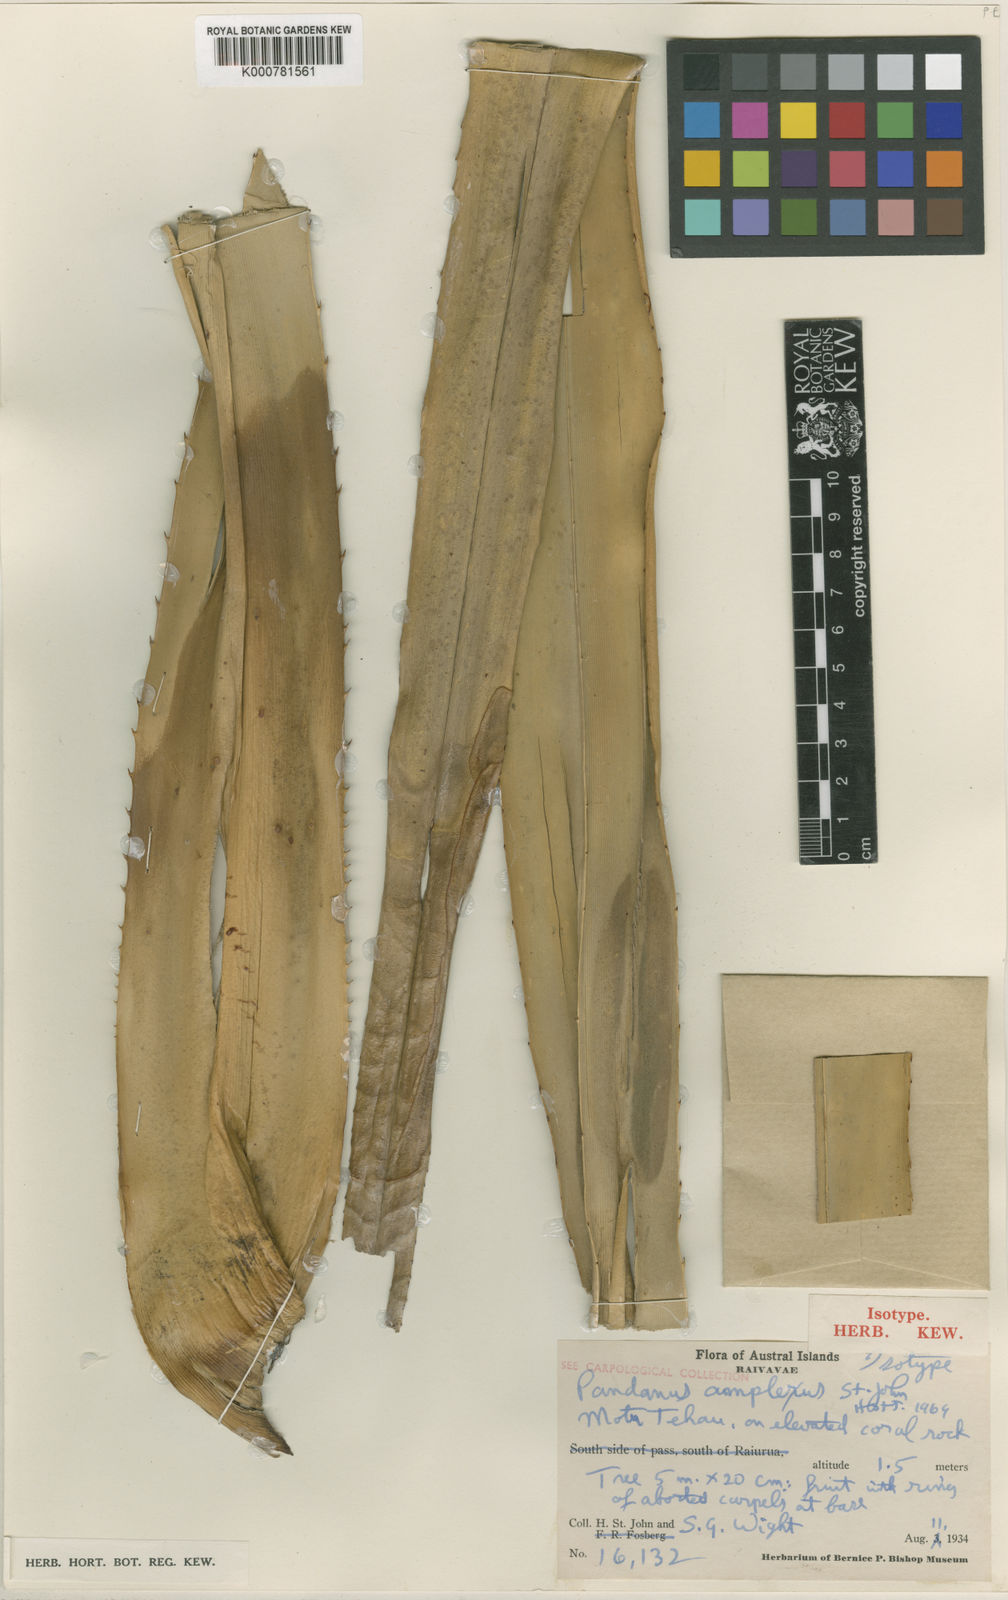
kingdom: Plantae
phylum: Tracheophyta
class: Liliopsida
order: Pandanales
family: Pandanaceae
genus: Pandanus
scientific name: Pandanus tectorius
